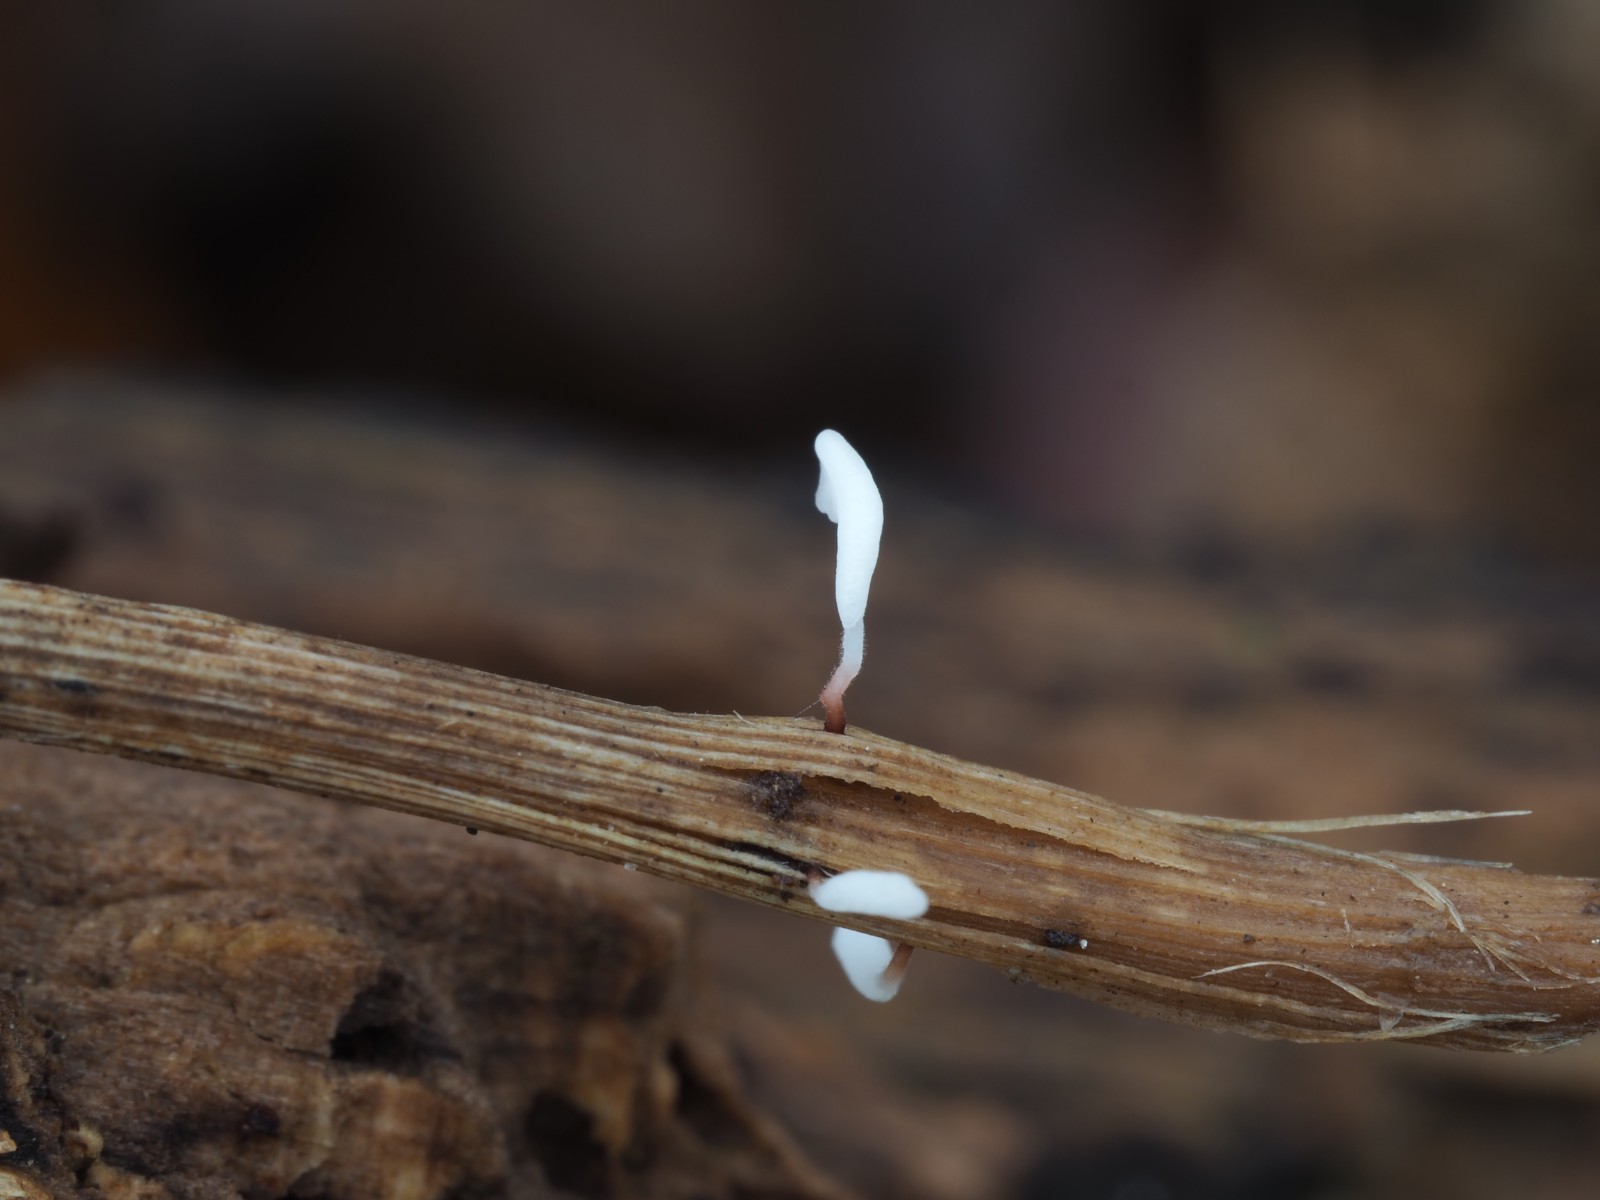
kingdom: Fungi
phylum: Basidiomycota
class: Agaricomycetes
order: Agaricales
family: Typhulaceae
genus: Typhula
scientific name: Typhula erythropus
